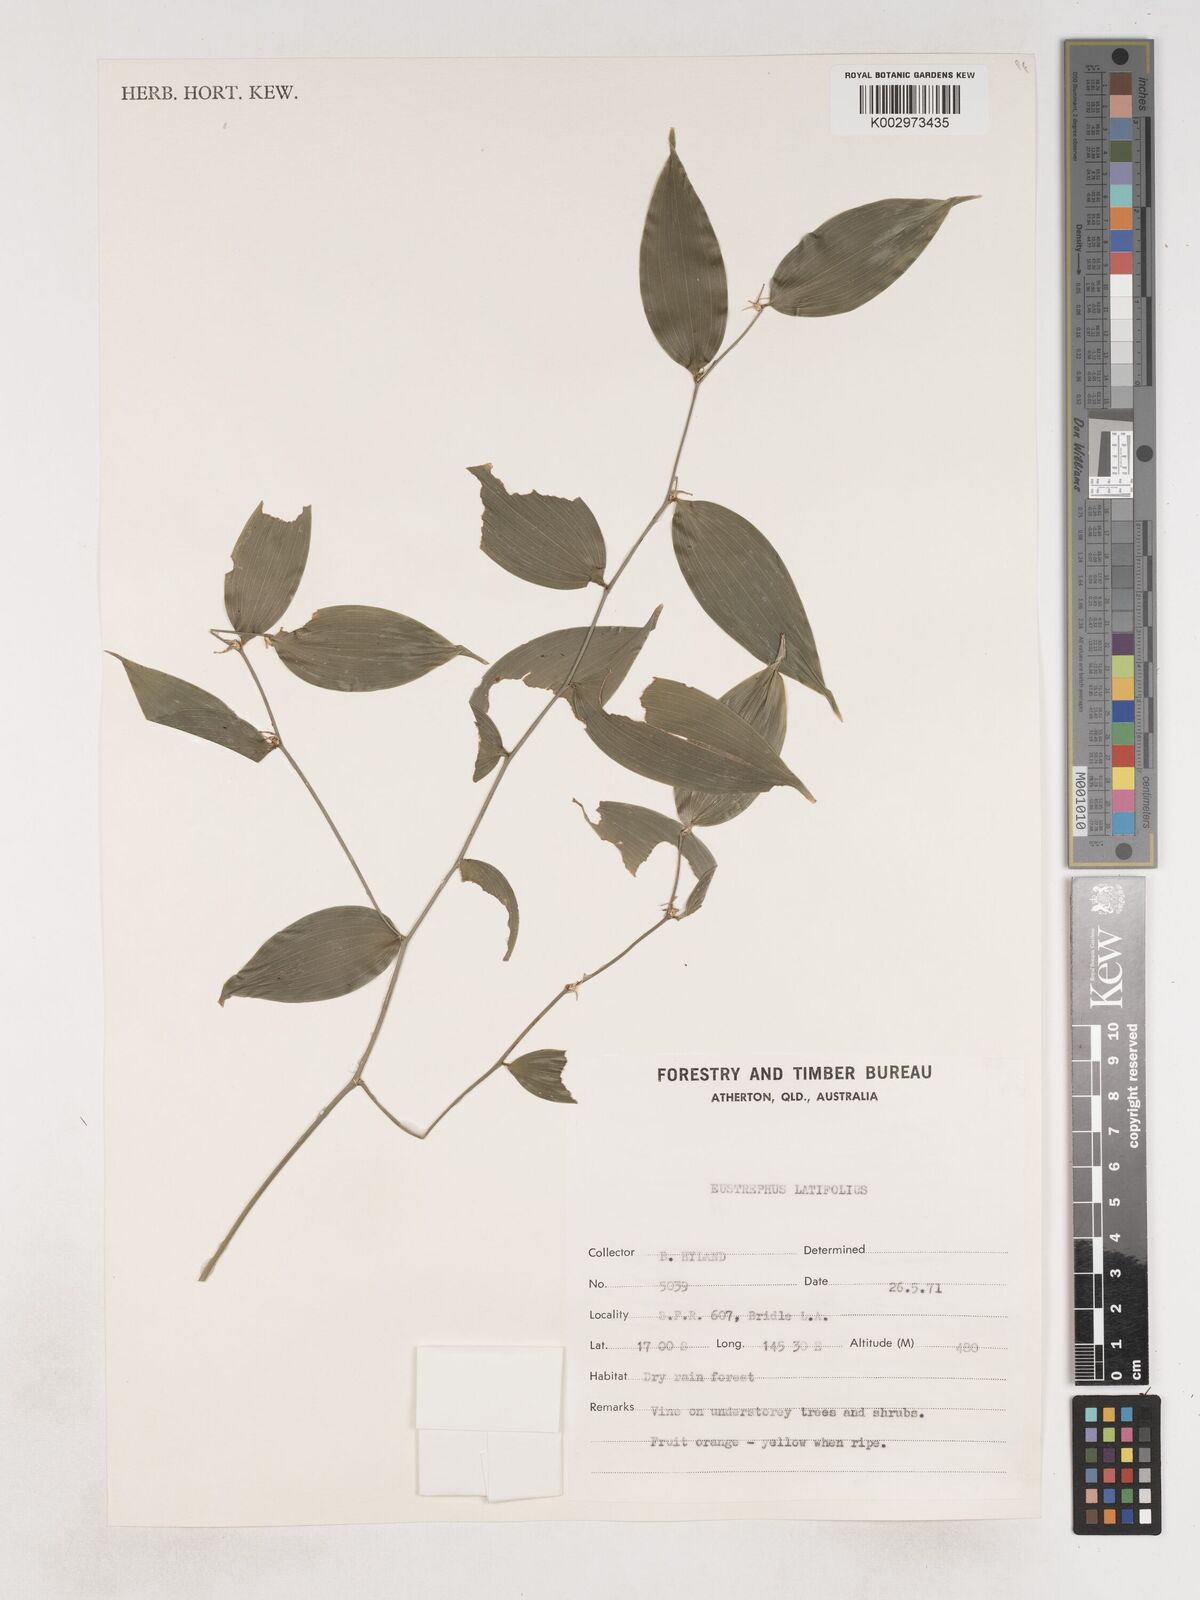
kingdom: Plantae
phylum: Tracheophyta
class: Liliopsida
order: Asparagales
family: Asparagaceae
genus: Eustrephus
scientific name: Eustrephus latifolius
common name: Orangevine
